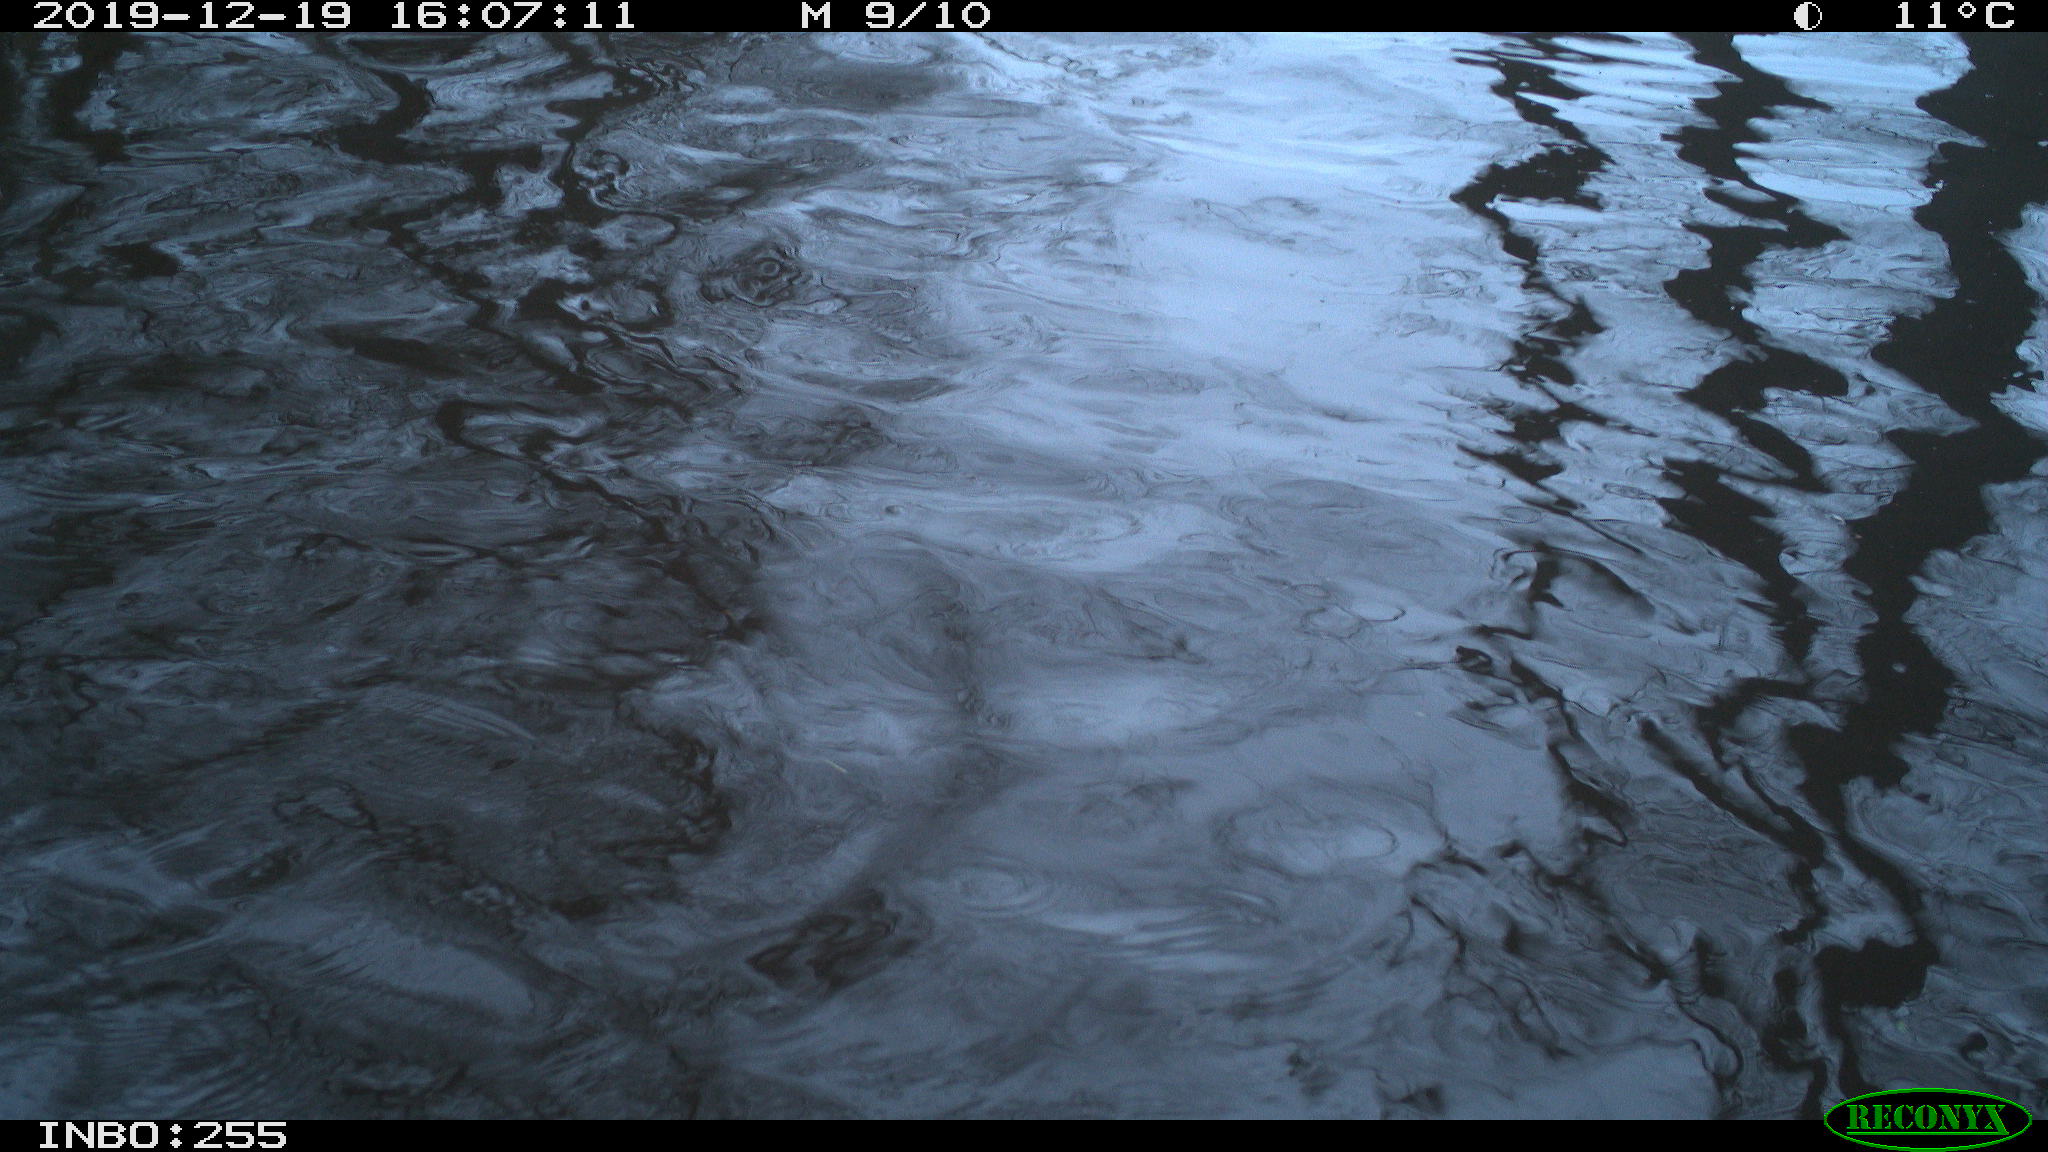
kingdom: Animalia
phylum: Chordata
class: Aves
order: Gruiformes
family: Rallidae
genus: Gallinula
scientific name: Gallinula chloropus
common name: Common moorhen
